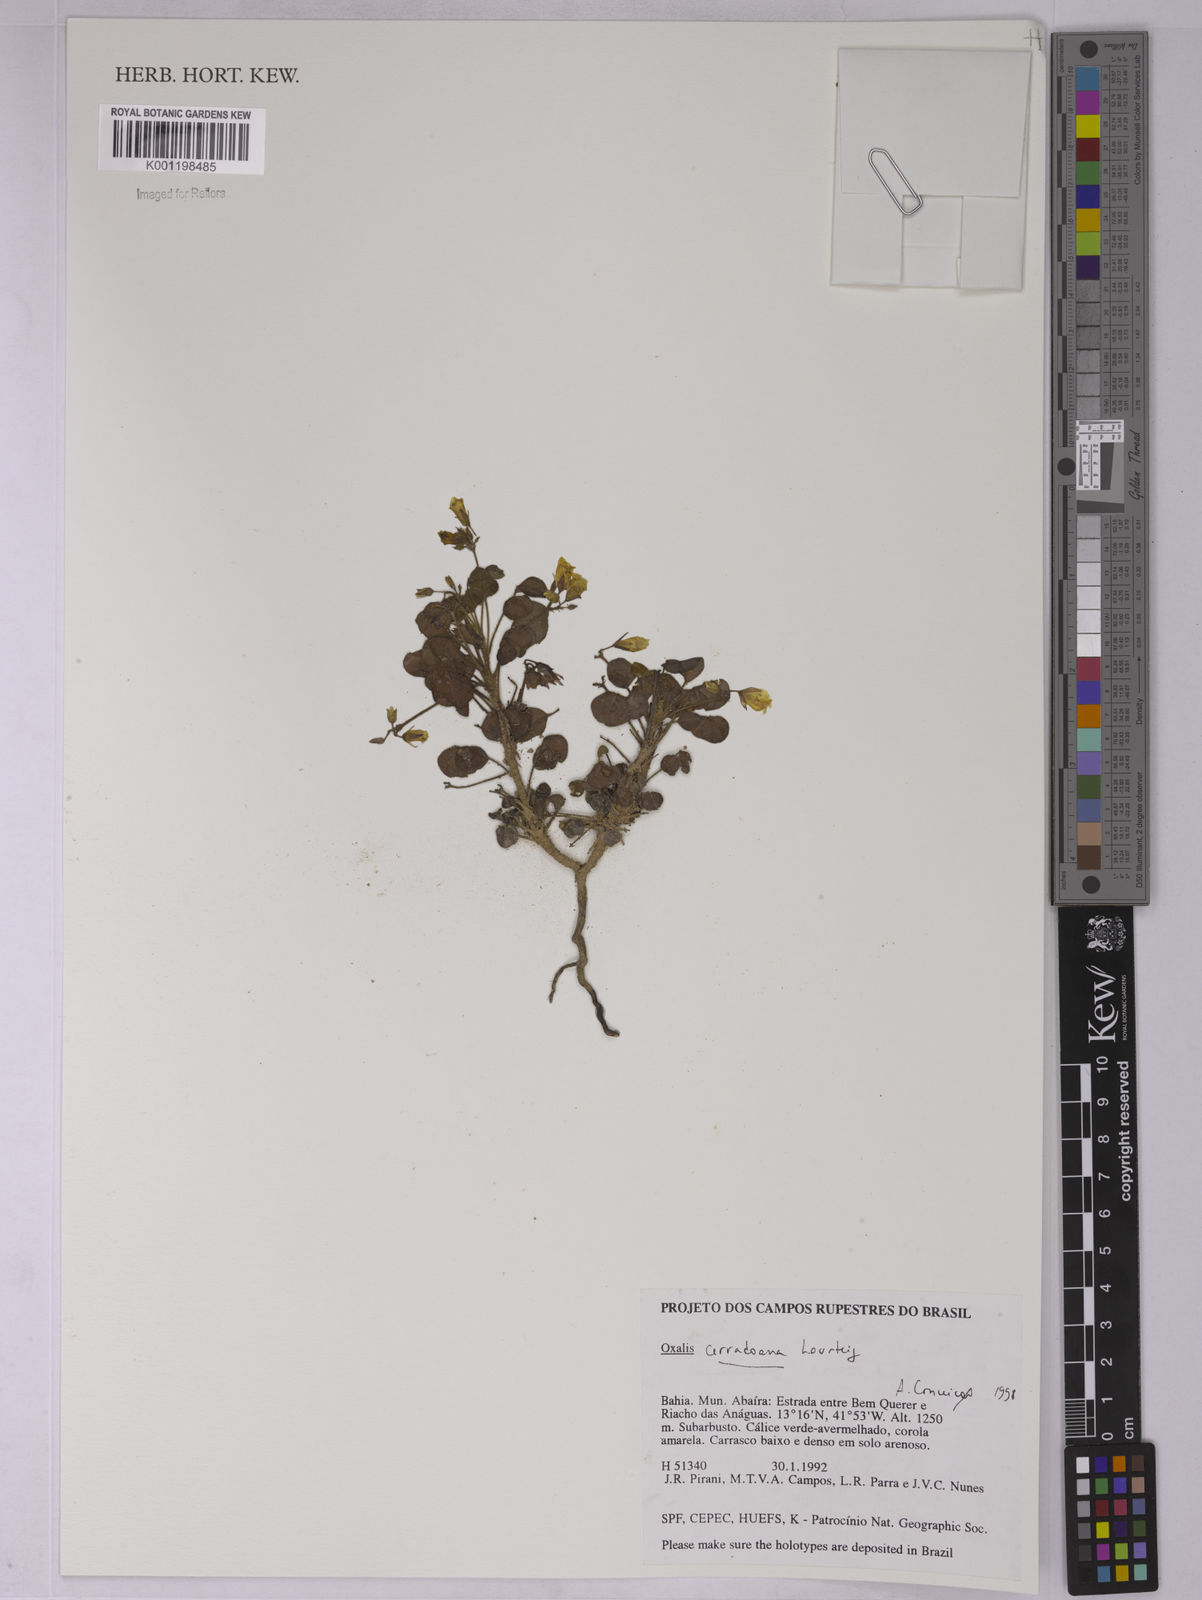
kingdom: Plantae
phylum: Tracheophyta
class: Magnoliopsida
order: Oxalidales
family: Oxalidaceae
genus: Oxalis
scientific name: Oxalis cerradoana
